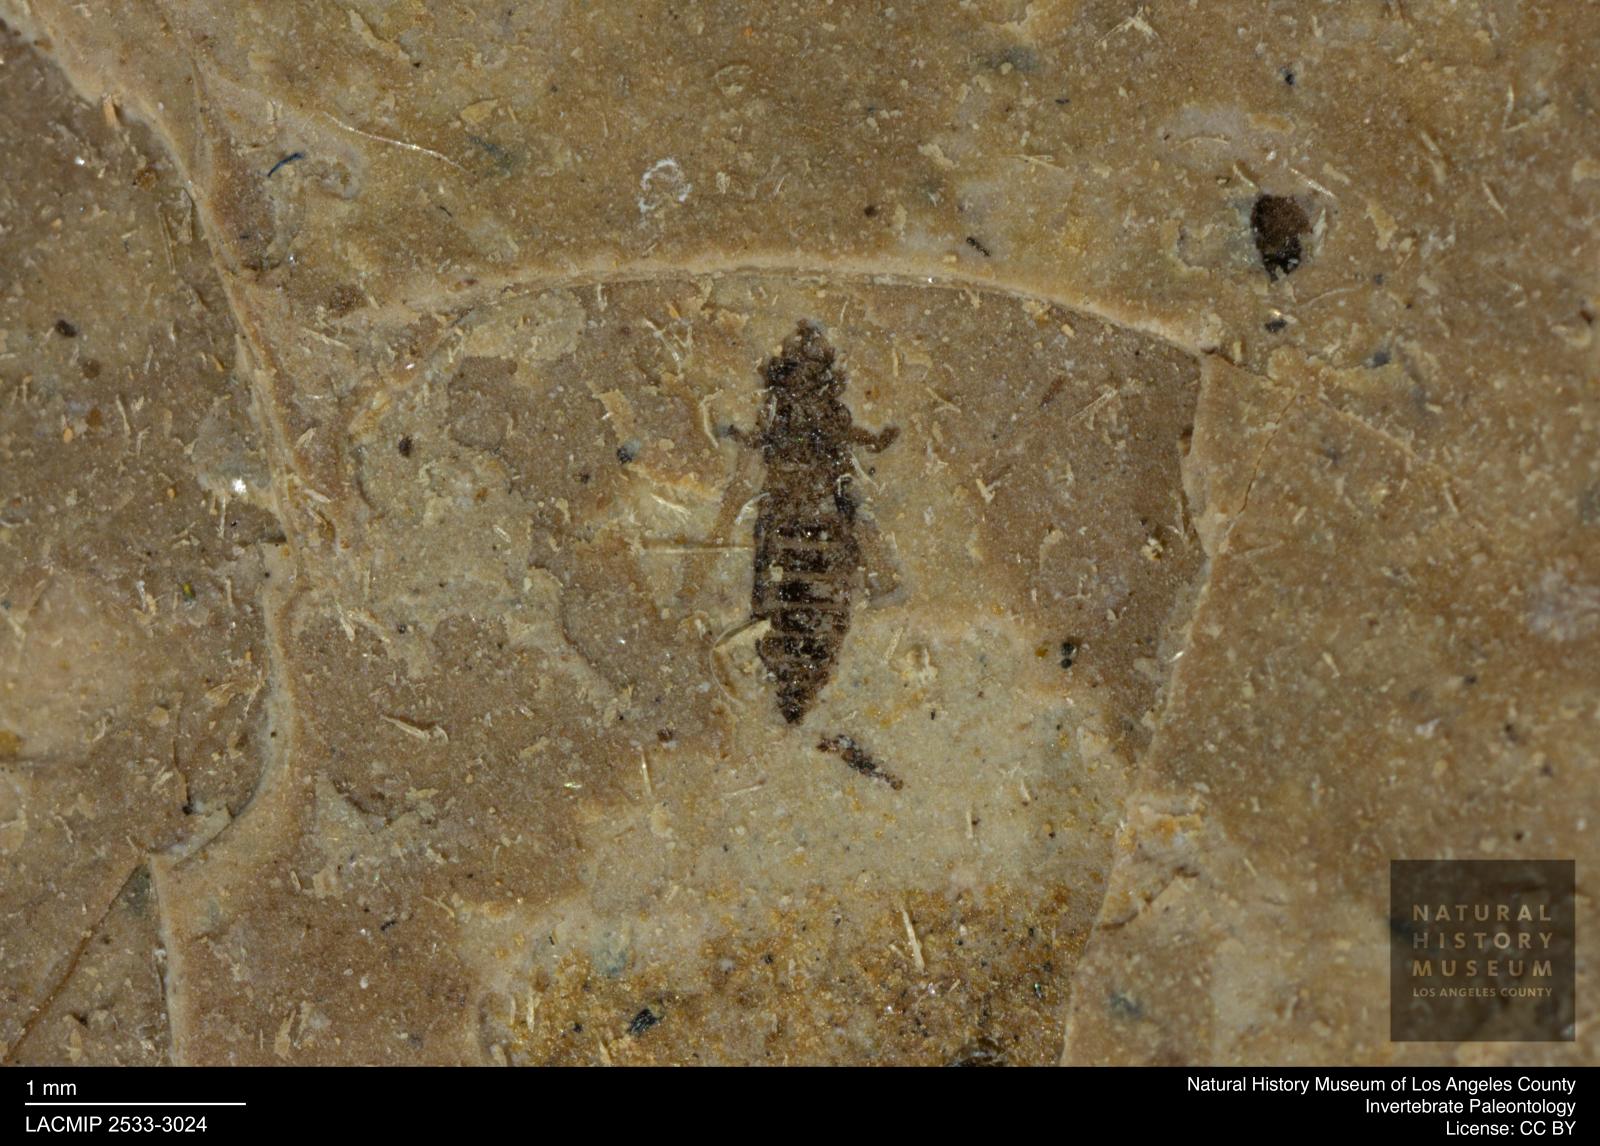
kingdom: Animalia
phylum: Arthropoda
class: Insecta
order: Thysanoptera
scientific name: Thysanoptera
